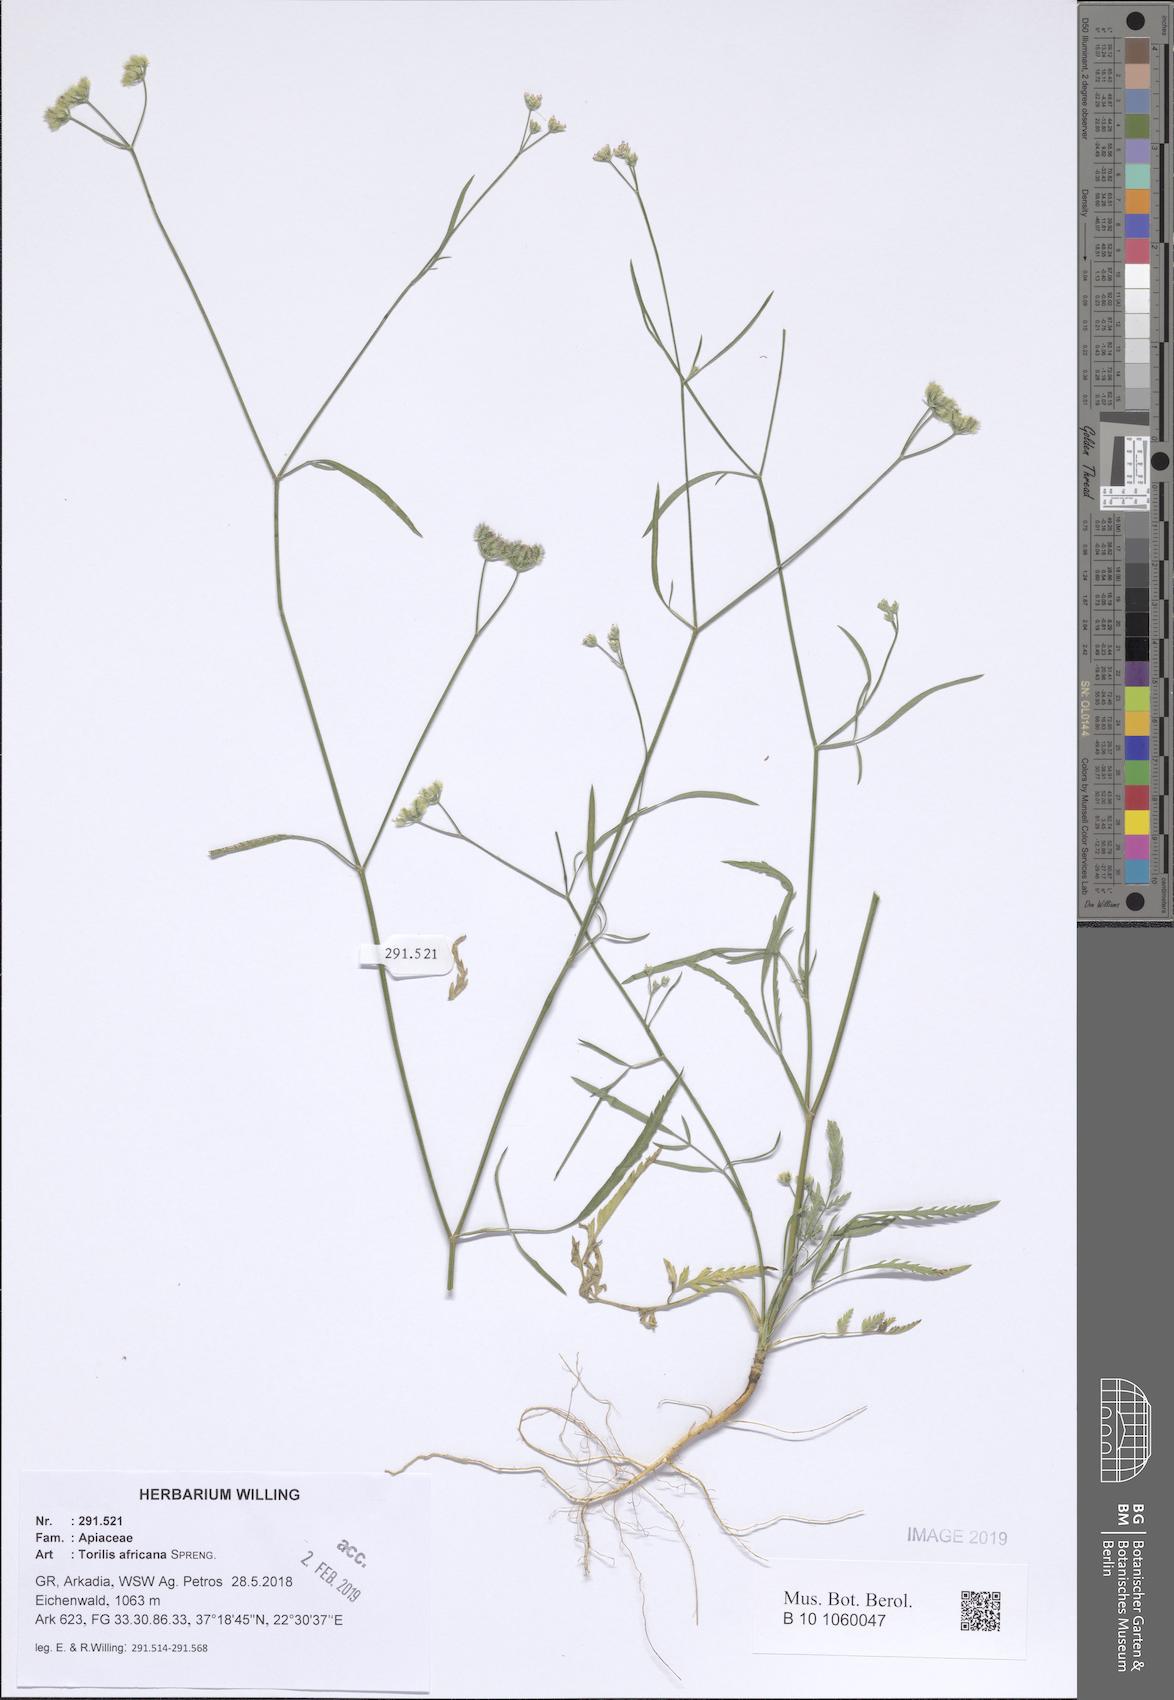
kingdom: Plantae
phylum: Tracheophyta
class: Magnoliopsida
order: Apiales
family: Apiaceae
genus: Torilis
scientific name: Torilis africana
